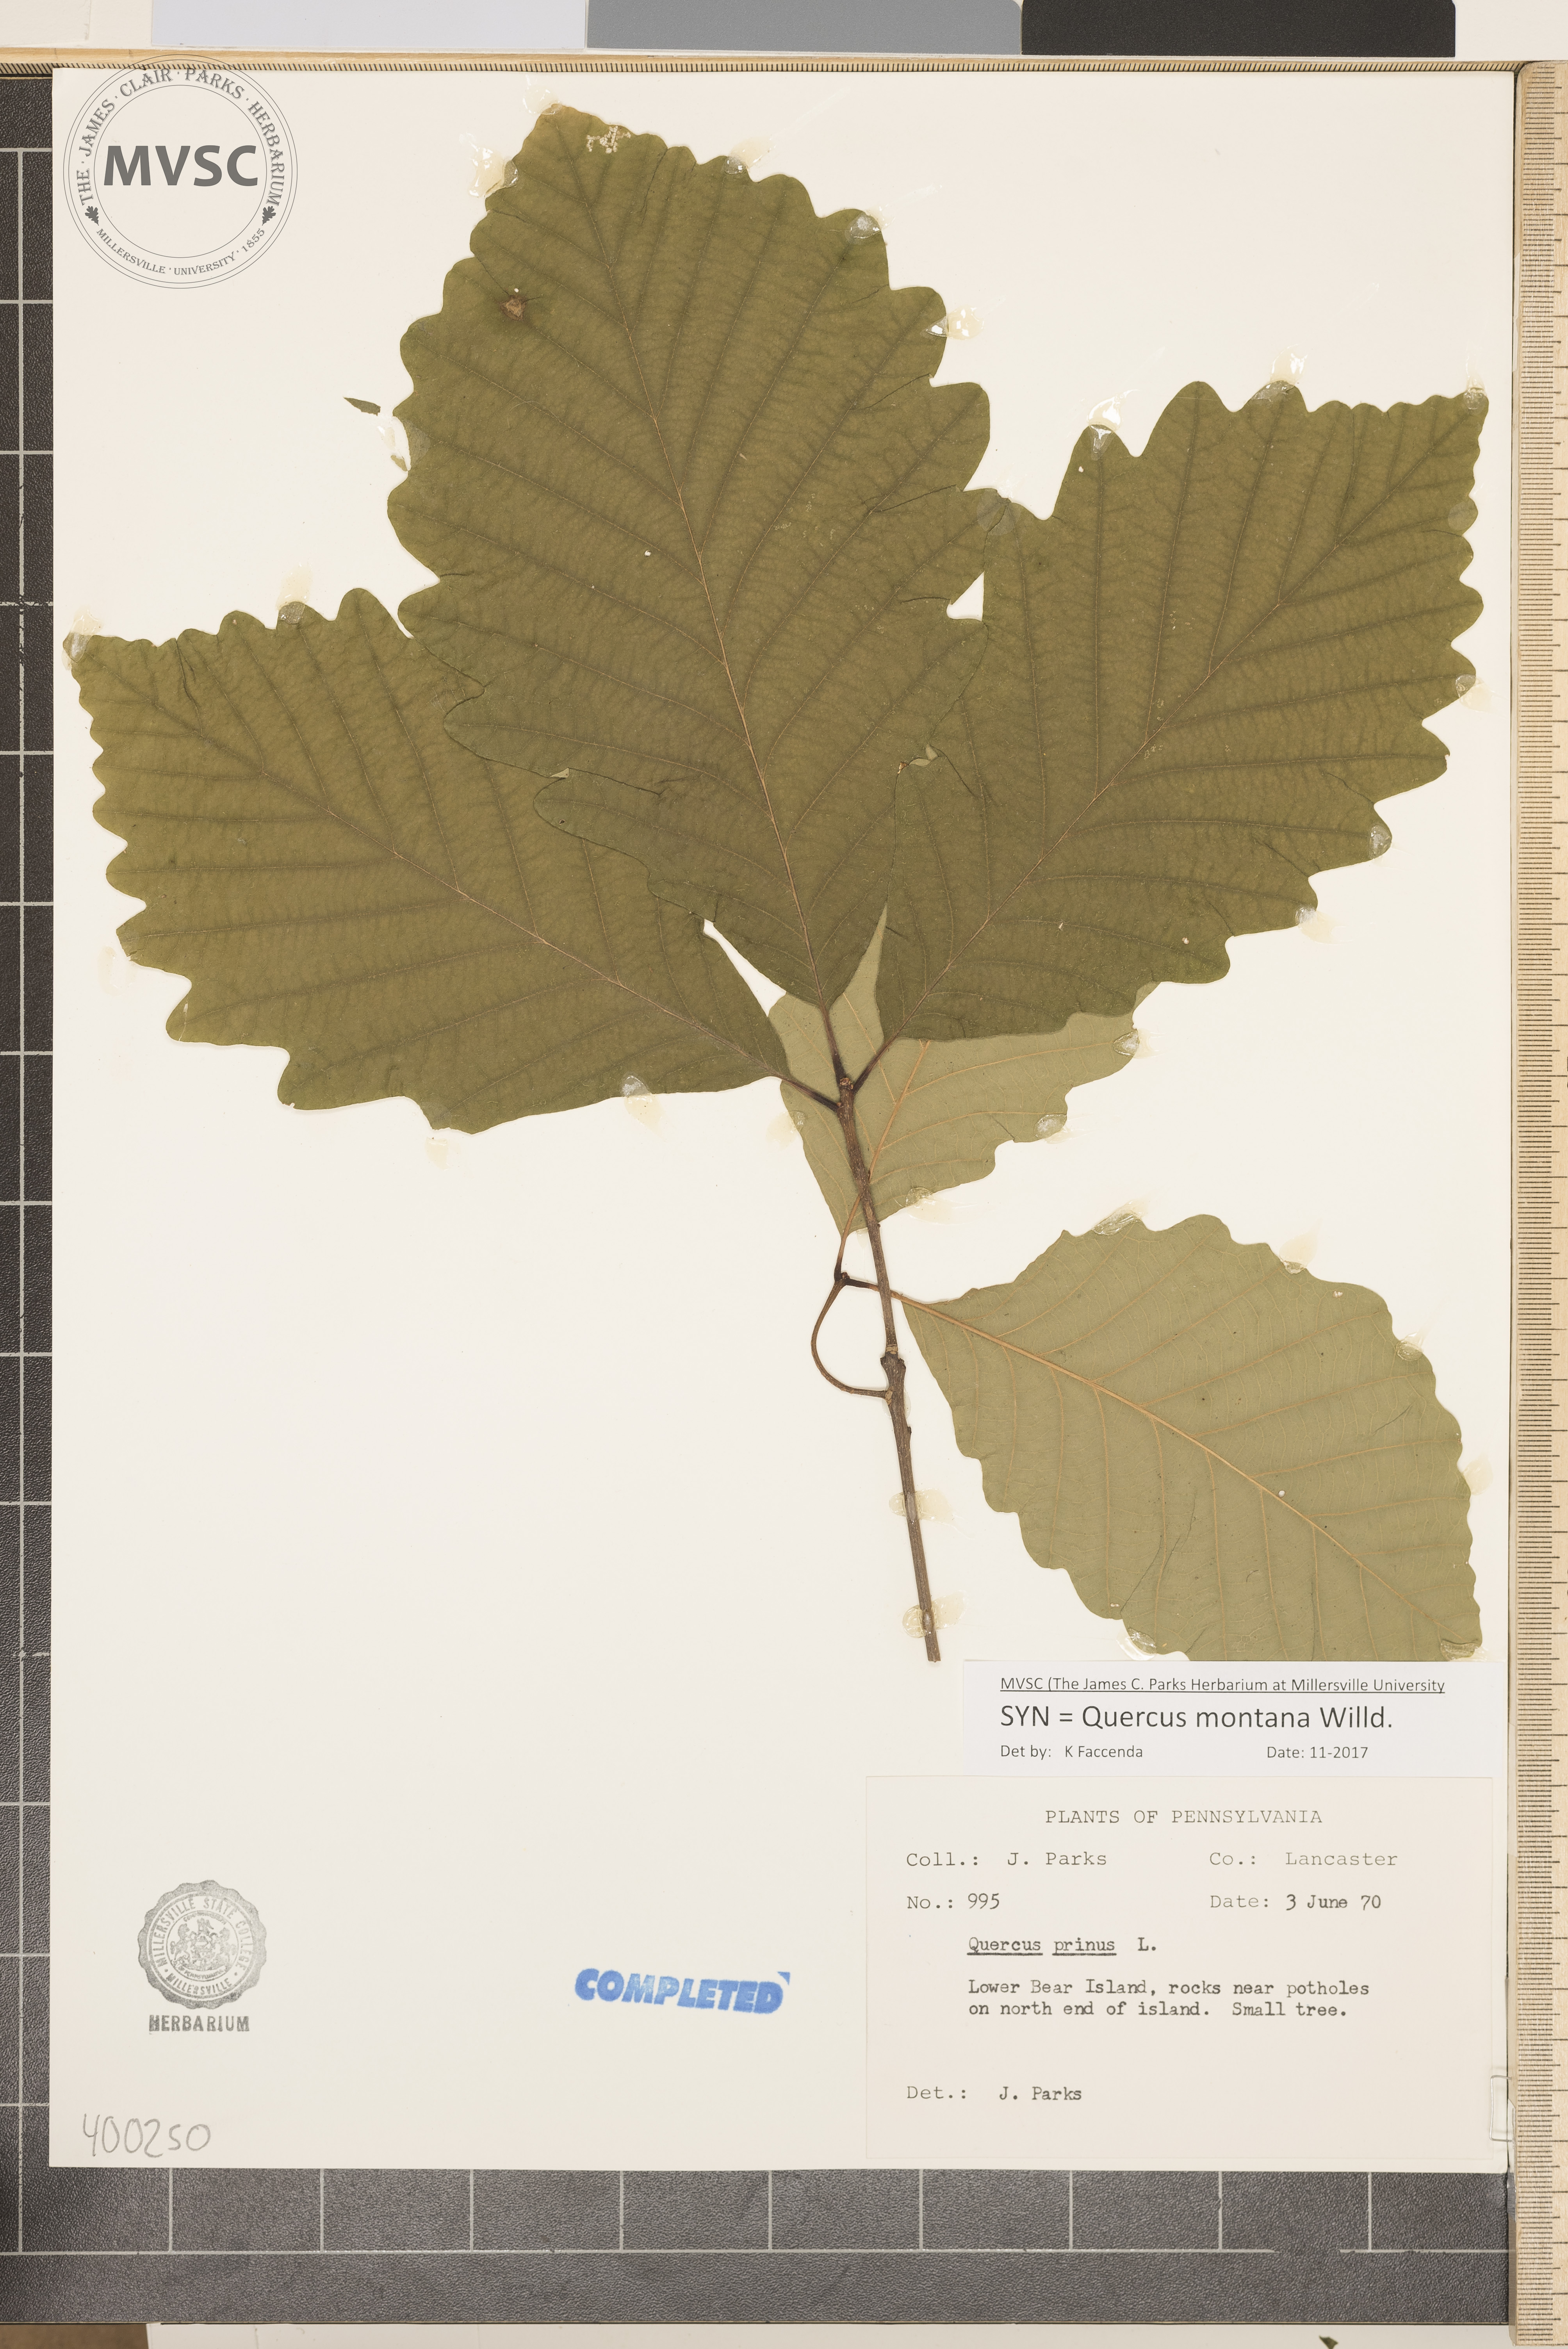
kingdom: Plantae
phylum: Tracheophyta
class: Magnoliopsida
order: Fagales
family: Fagaceae
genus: Quercus
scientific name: Quercus montana
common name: chestnut oak
